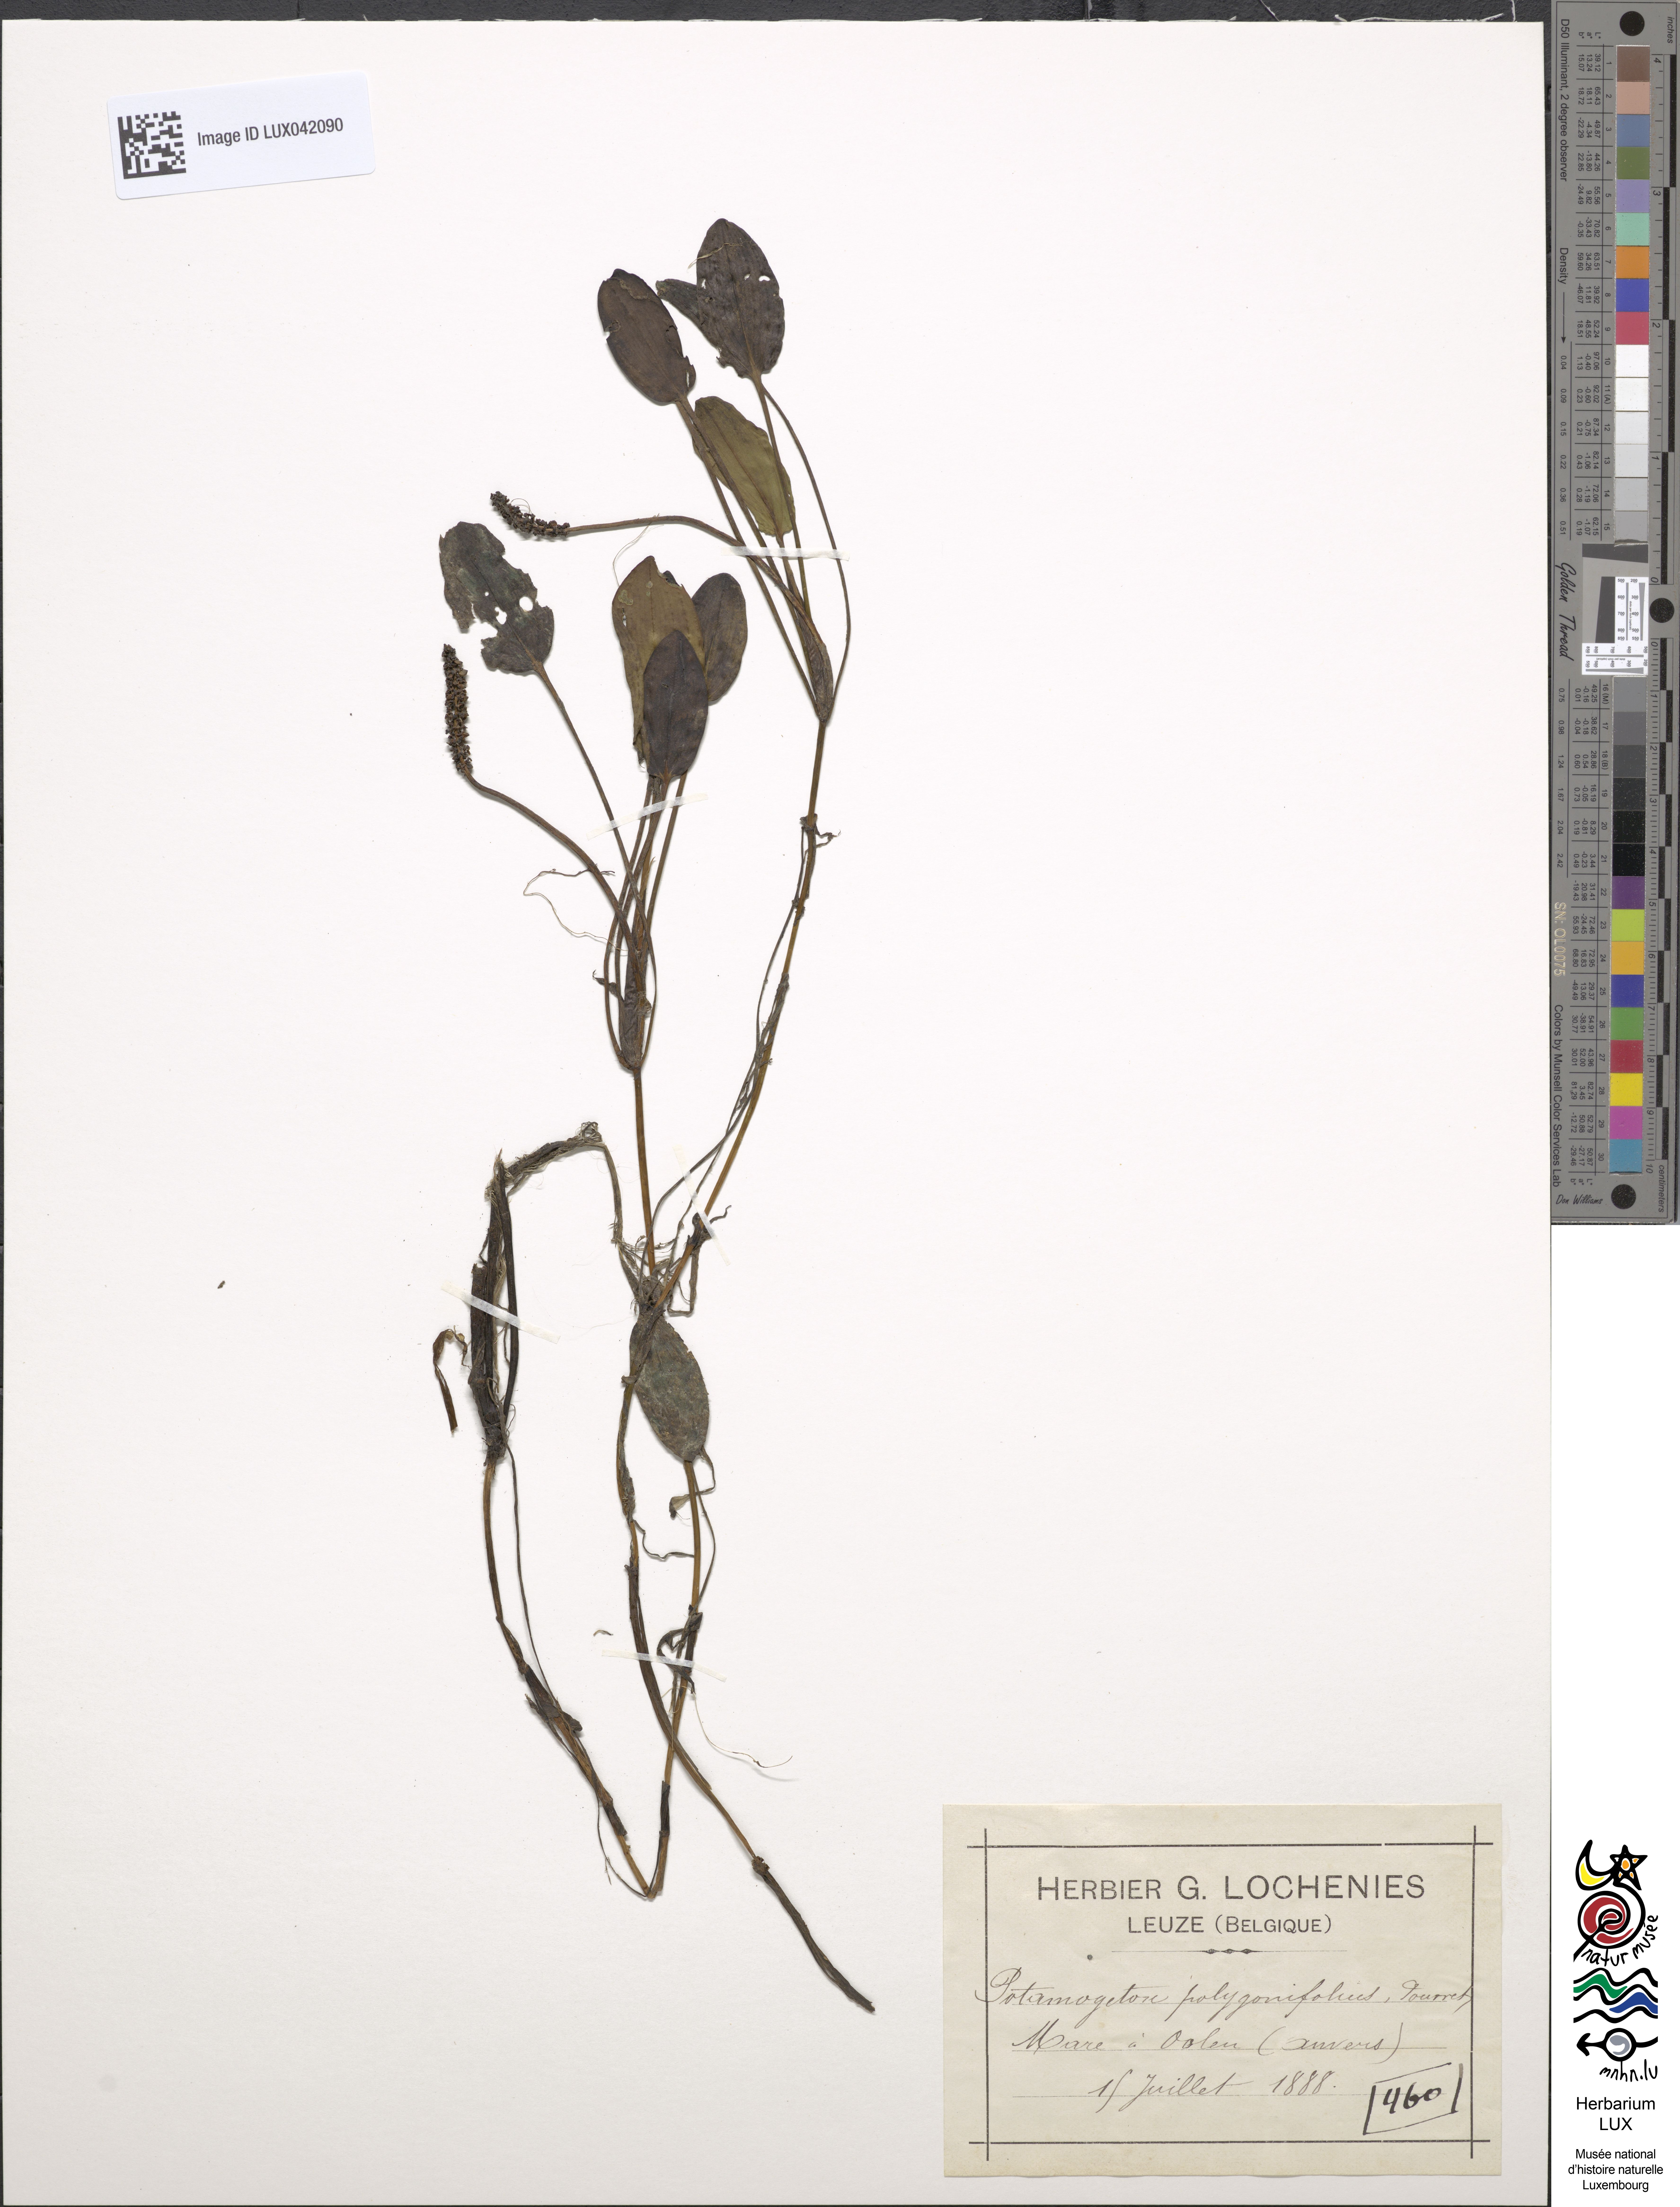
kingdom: Plantae
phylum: Tracheophyta
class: Liliopsida
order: Alismatales
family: Potamogetonaceae
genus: Potamogeton
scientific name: Potamogeton polygonifolius
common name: Bog pondweed
